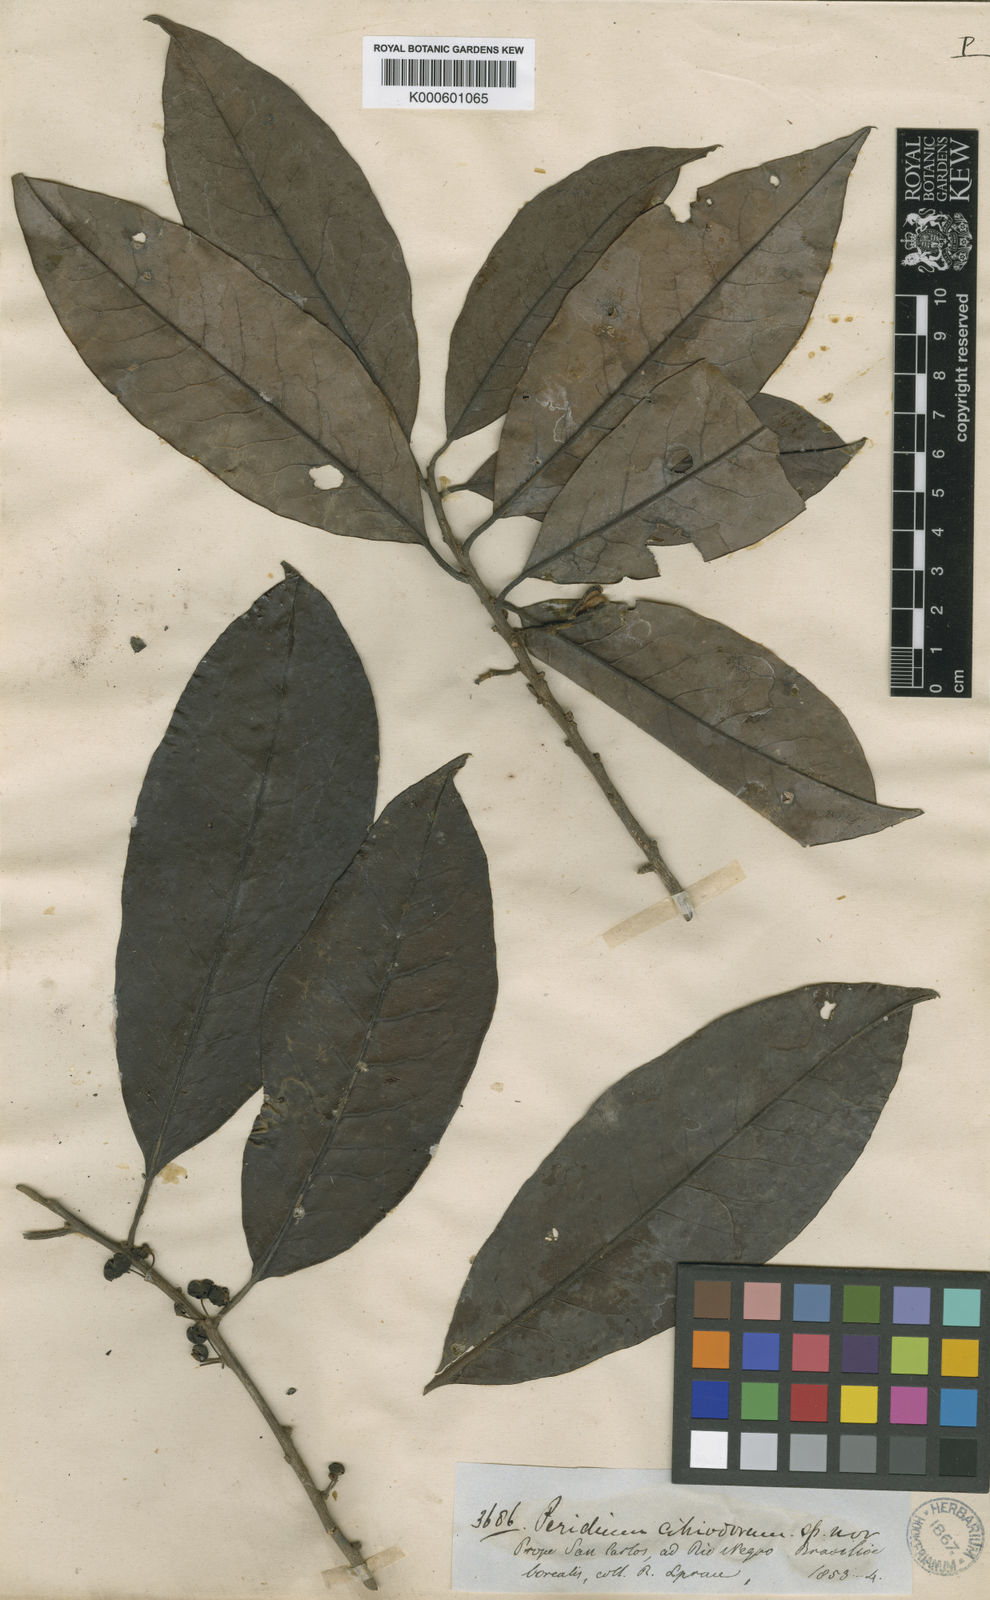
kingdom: Plantae
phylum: Tracheophyta
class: Magnoliopsida
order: Malpighiales
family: Peraceae
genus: Pera
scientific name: Pera citriodora
